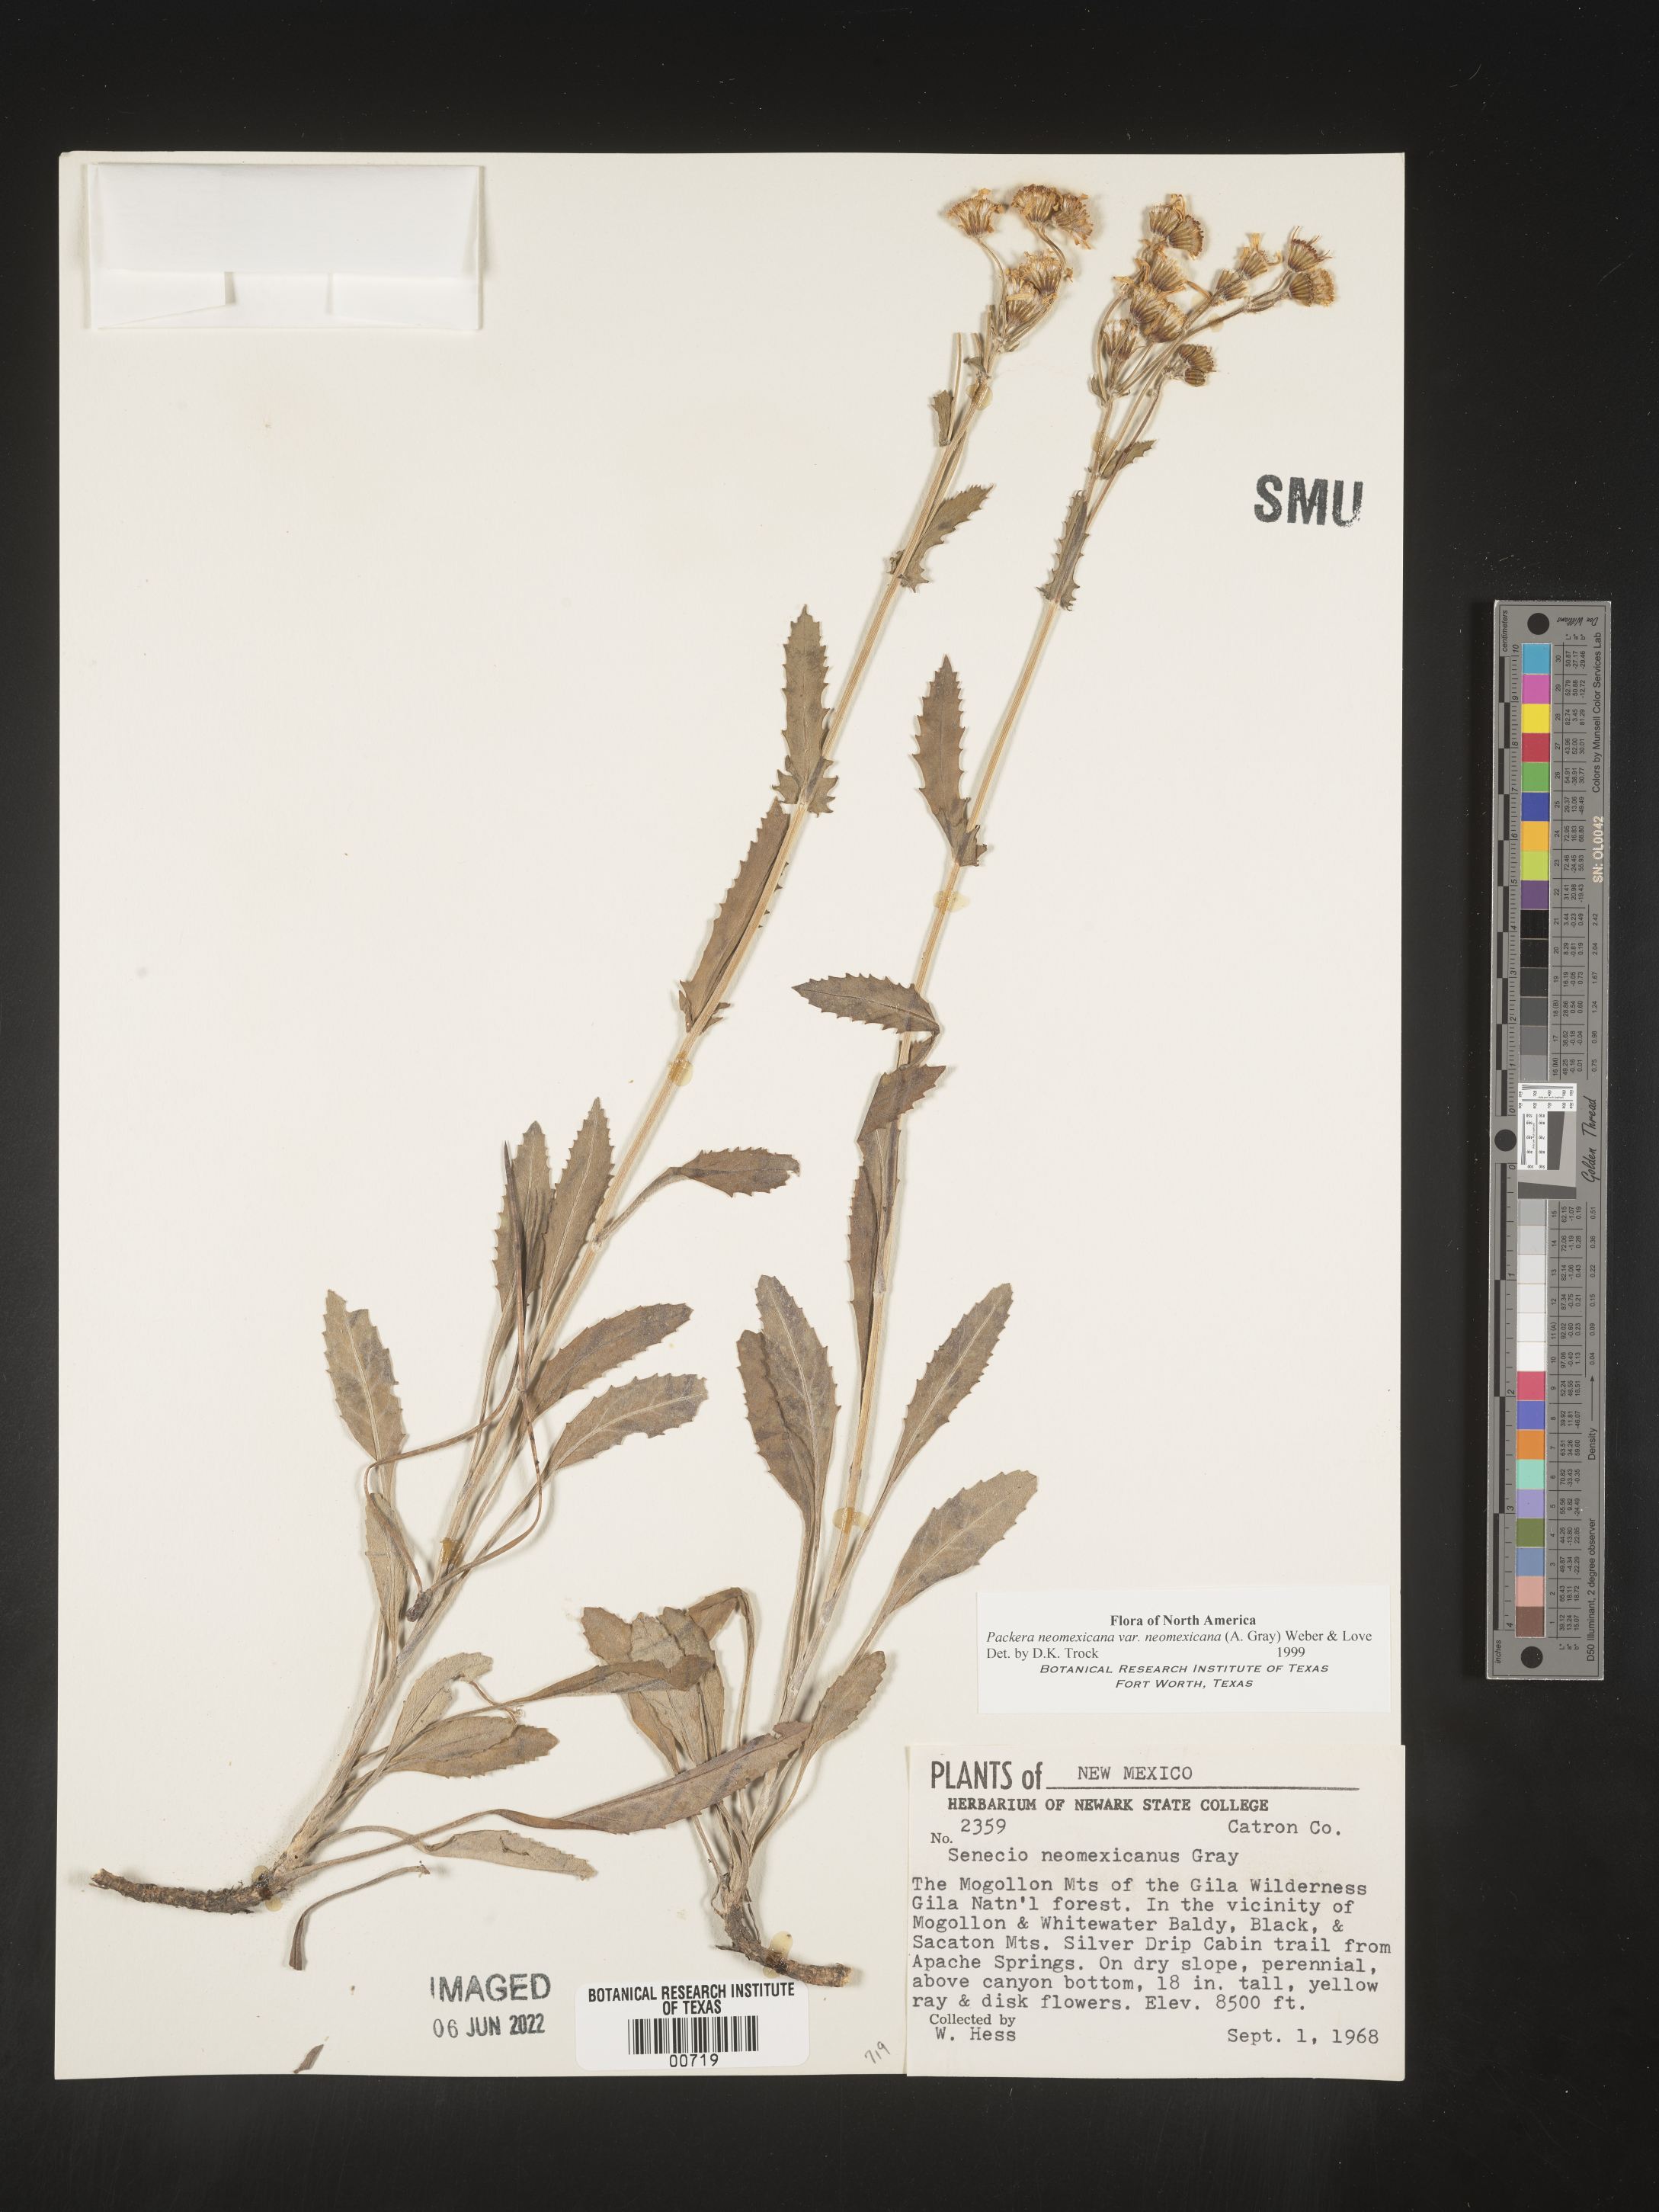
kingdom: Plantae
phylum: Tracheophyta
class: Magnoliopsida
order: Asterales
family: Asteraceae
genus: Packera
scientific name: Packera neomexicana
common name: New mexico butterweed
